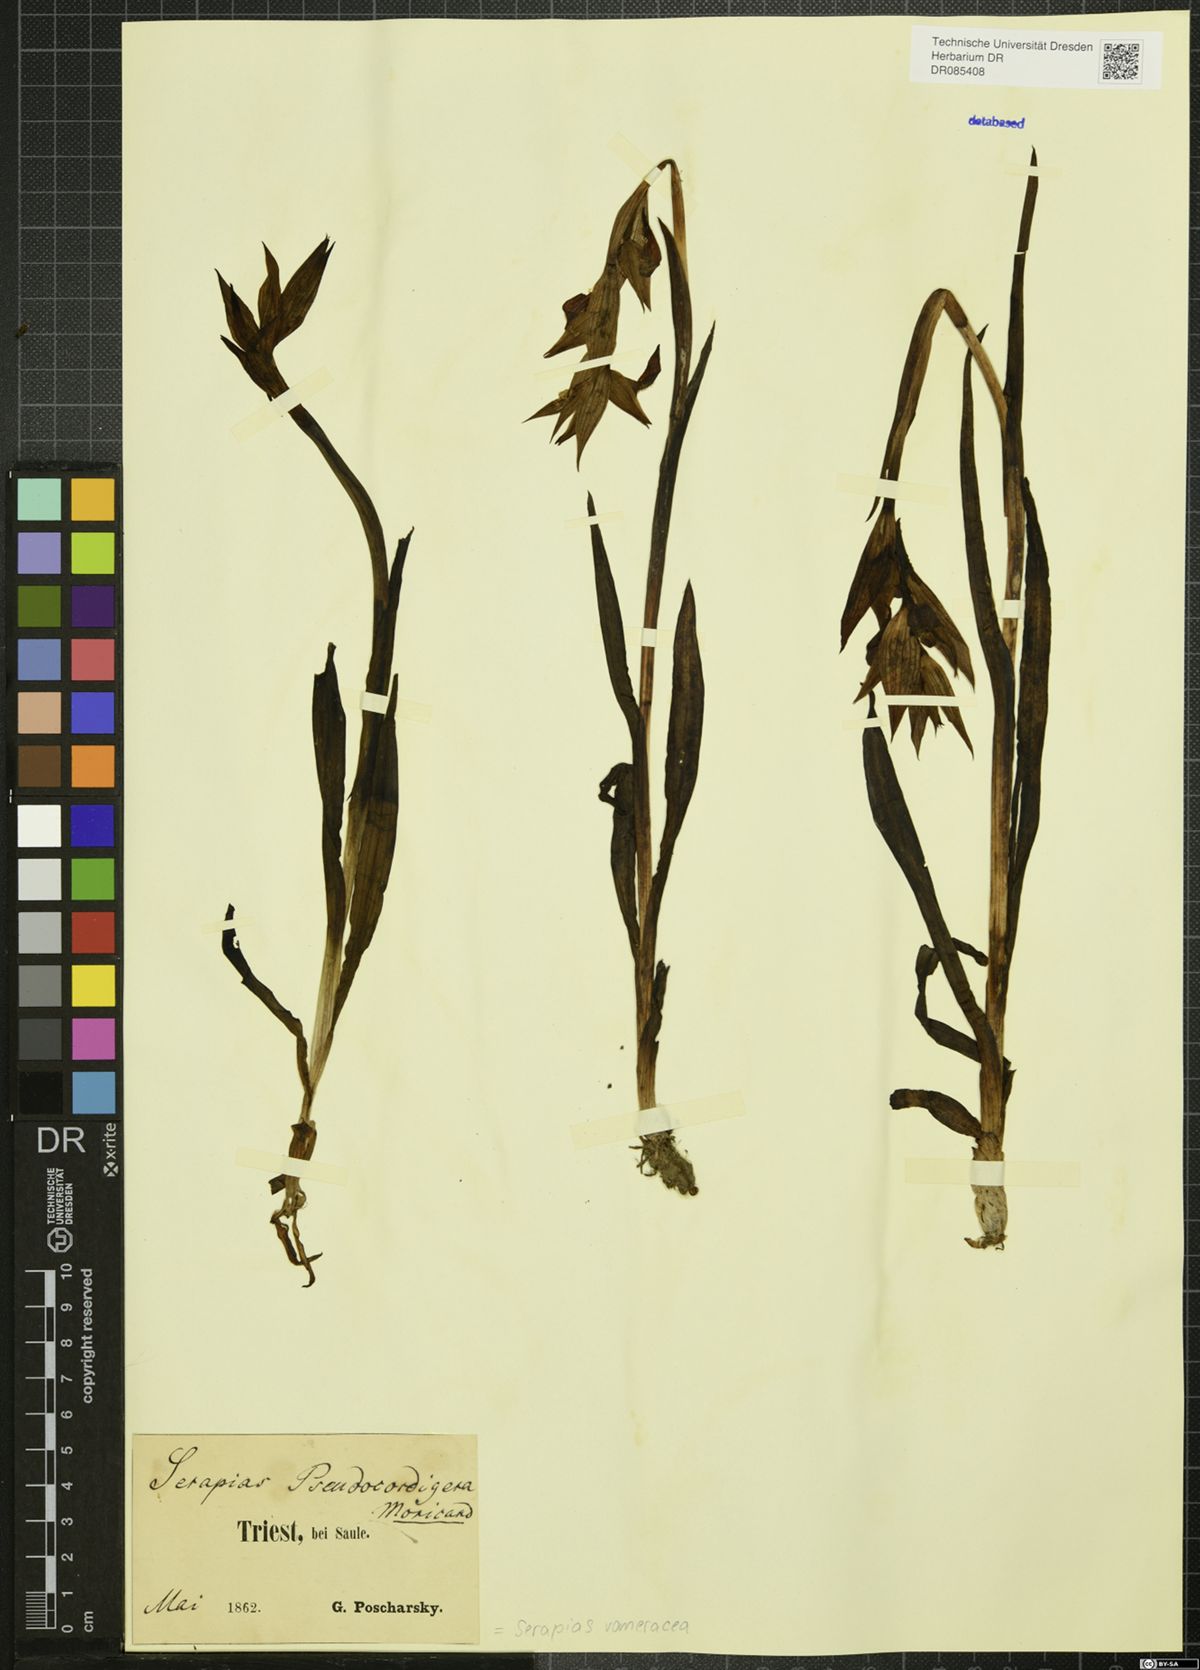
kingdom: Plantae
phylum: Tracheophyta
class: Liliopsida
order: Asparagales
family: Orchidaceae
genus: Serapias
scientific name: Serapias vomeracea
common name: Long-lipped tongue-orchid
